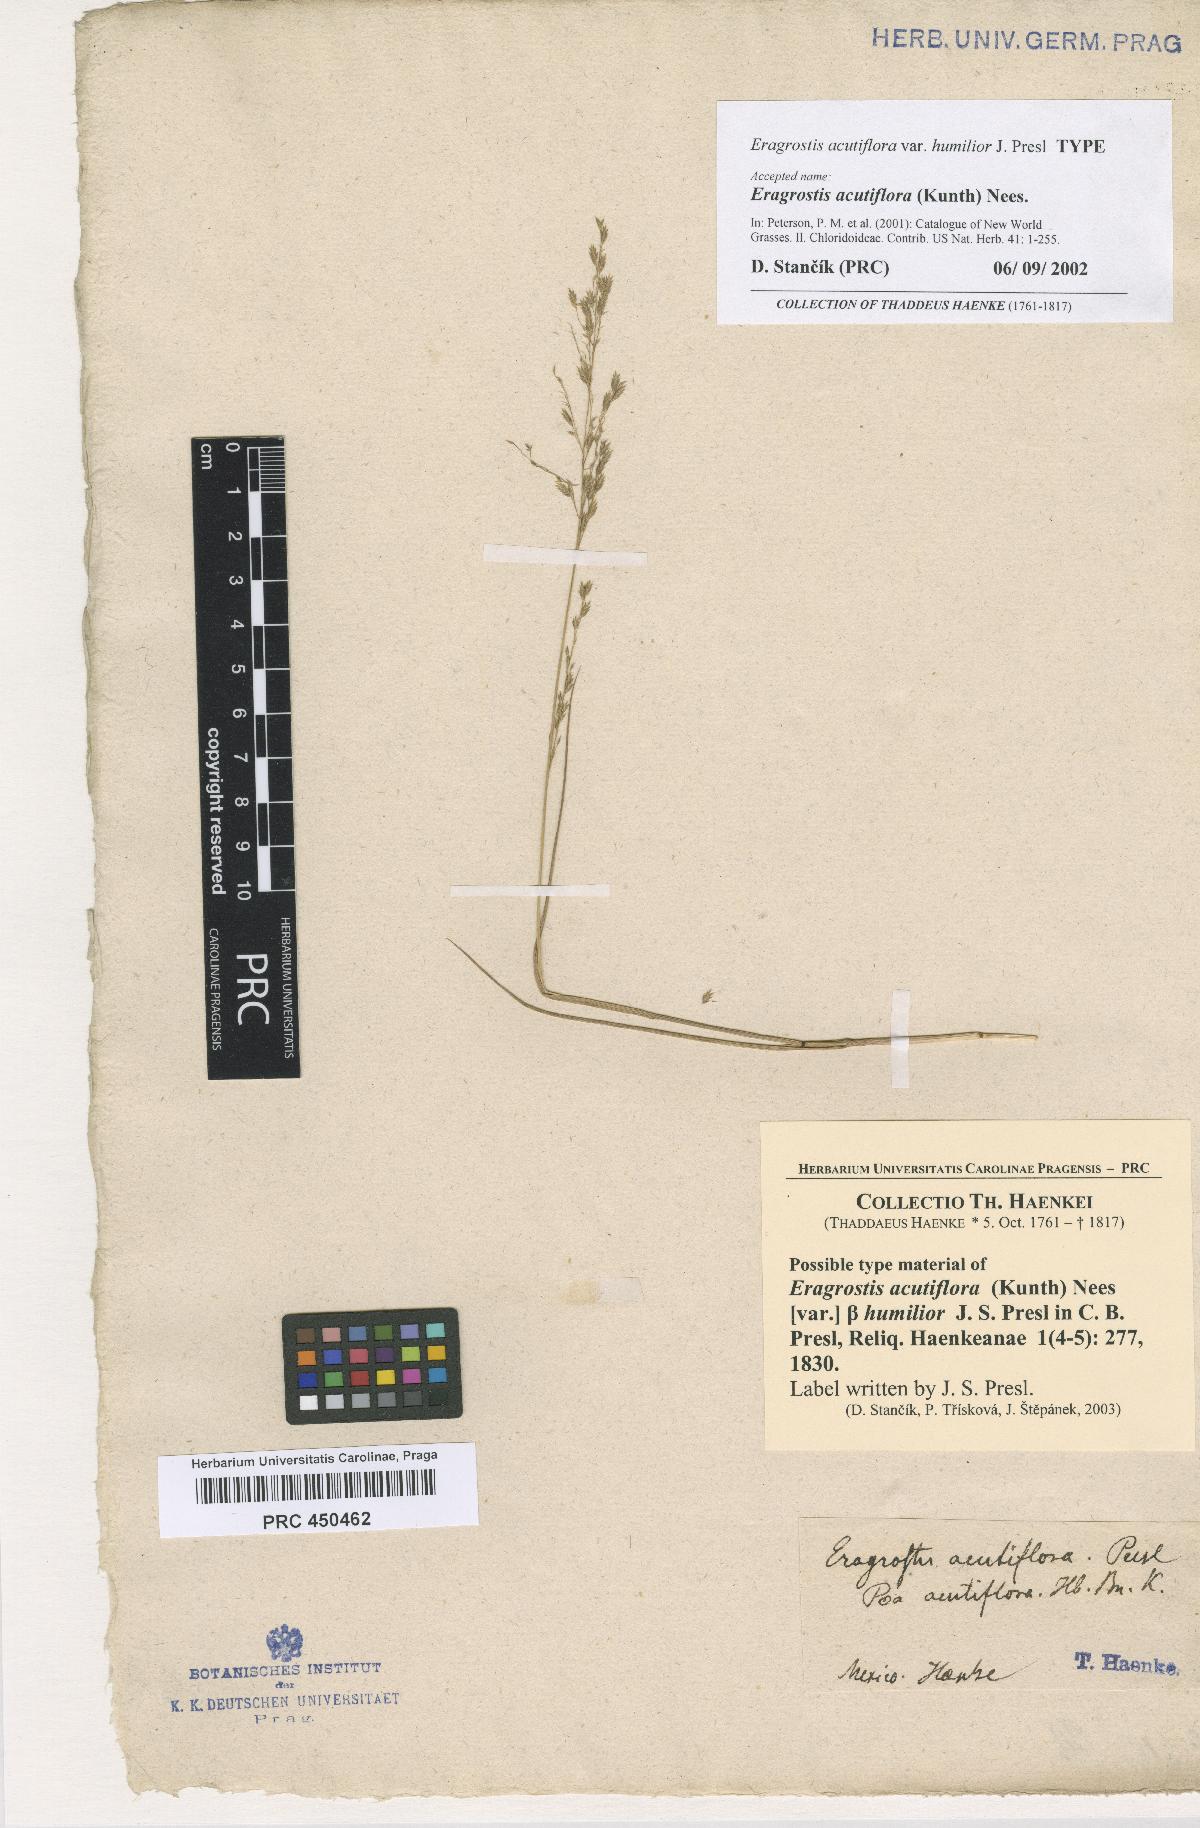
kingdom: Plantae
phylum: Tracheophyta
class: Liliopsida
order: Poales
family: Poaceae
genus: Eragrostis
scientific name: Eragrostis acutiflora
